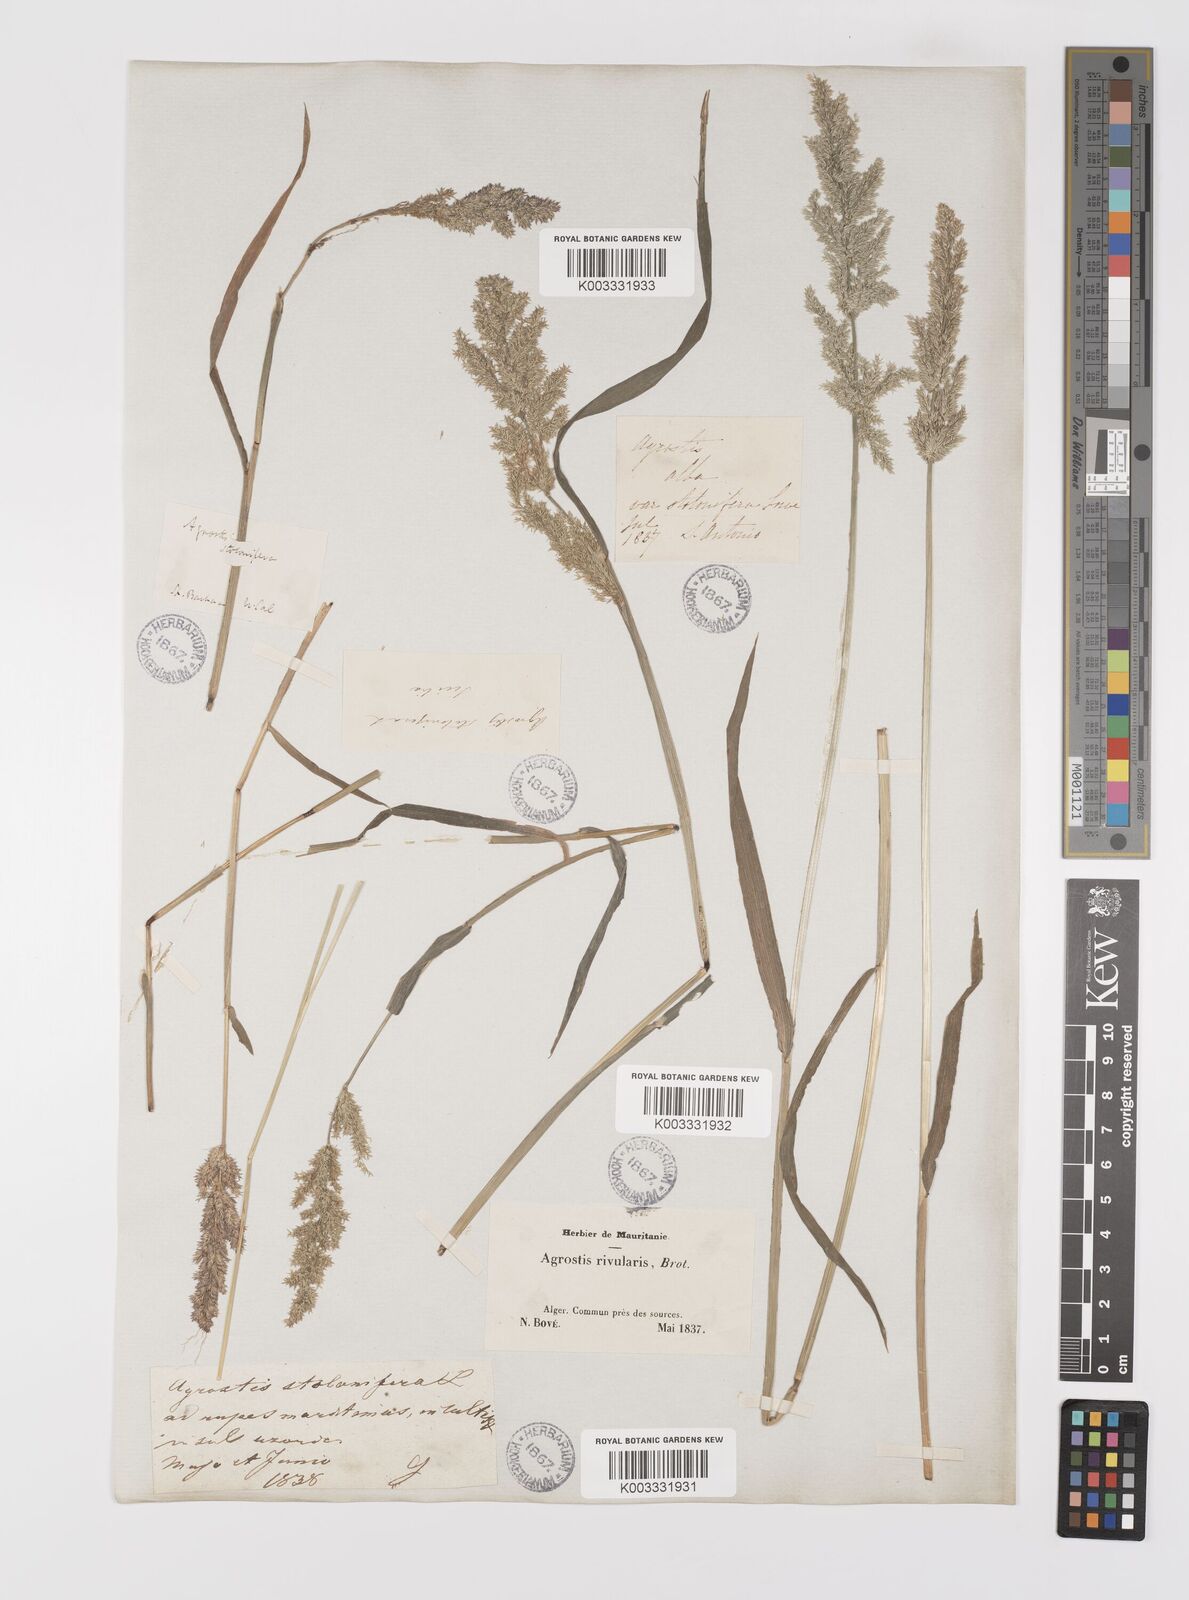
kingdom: Plantae
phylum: Tracheophyta
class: Liliopsida
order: Poales
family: Poaceae
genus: Polypogon
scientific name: Polypogon viridis
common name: Water bent
